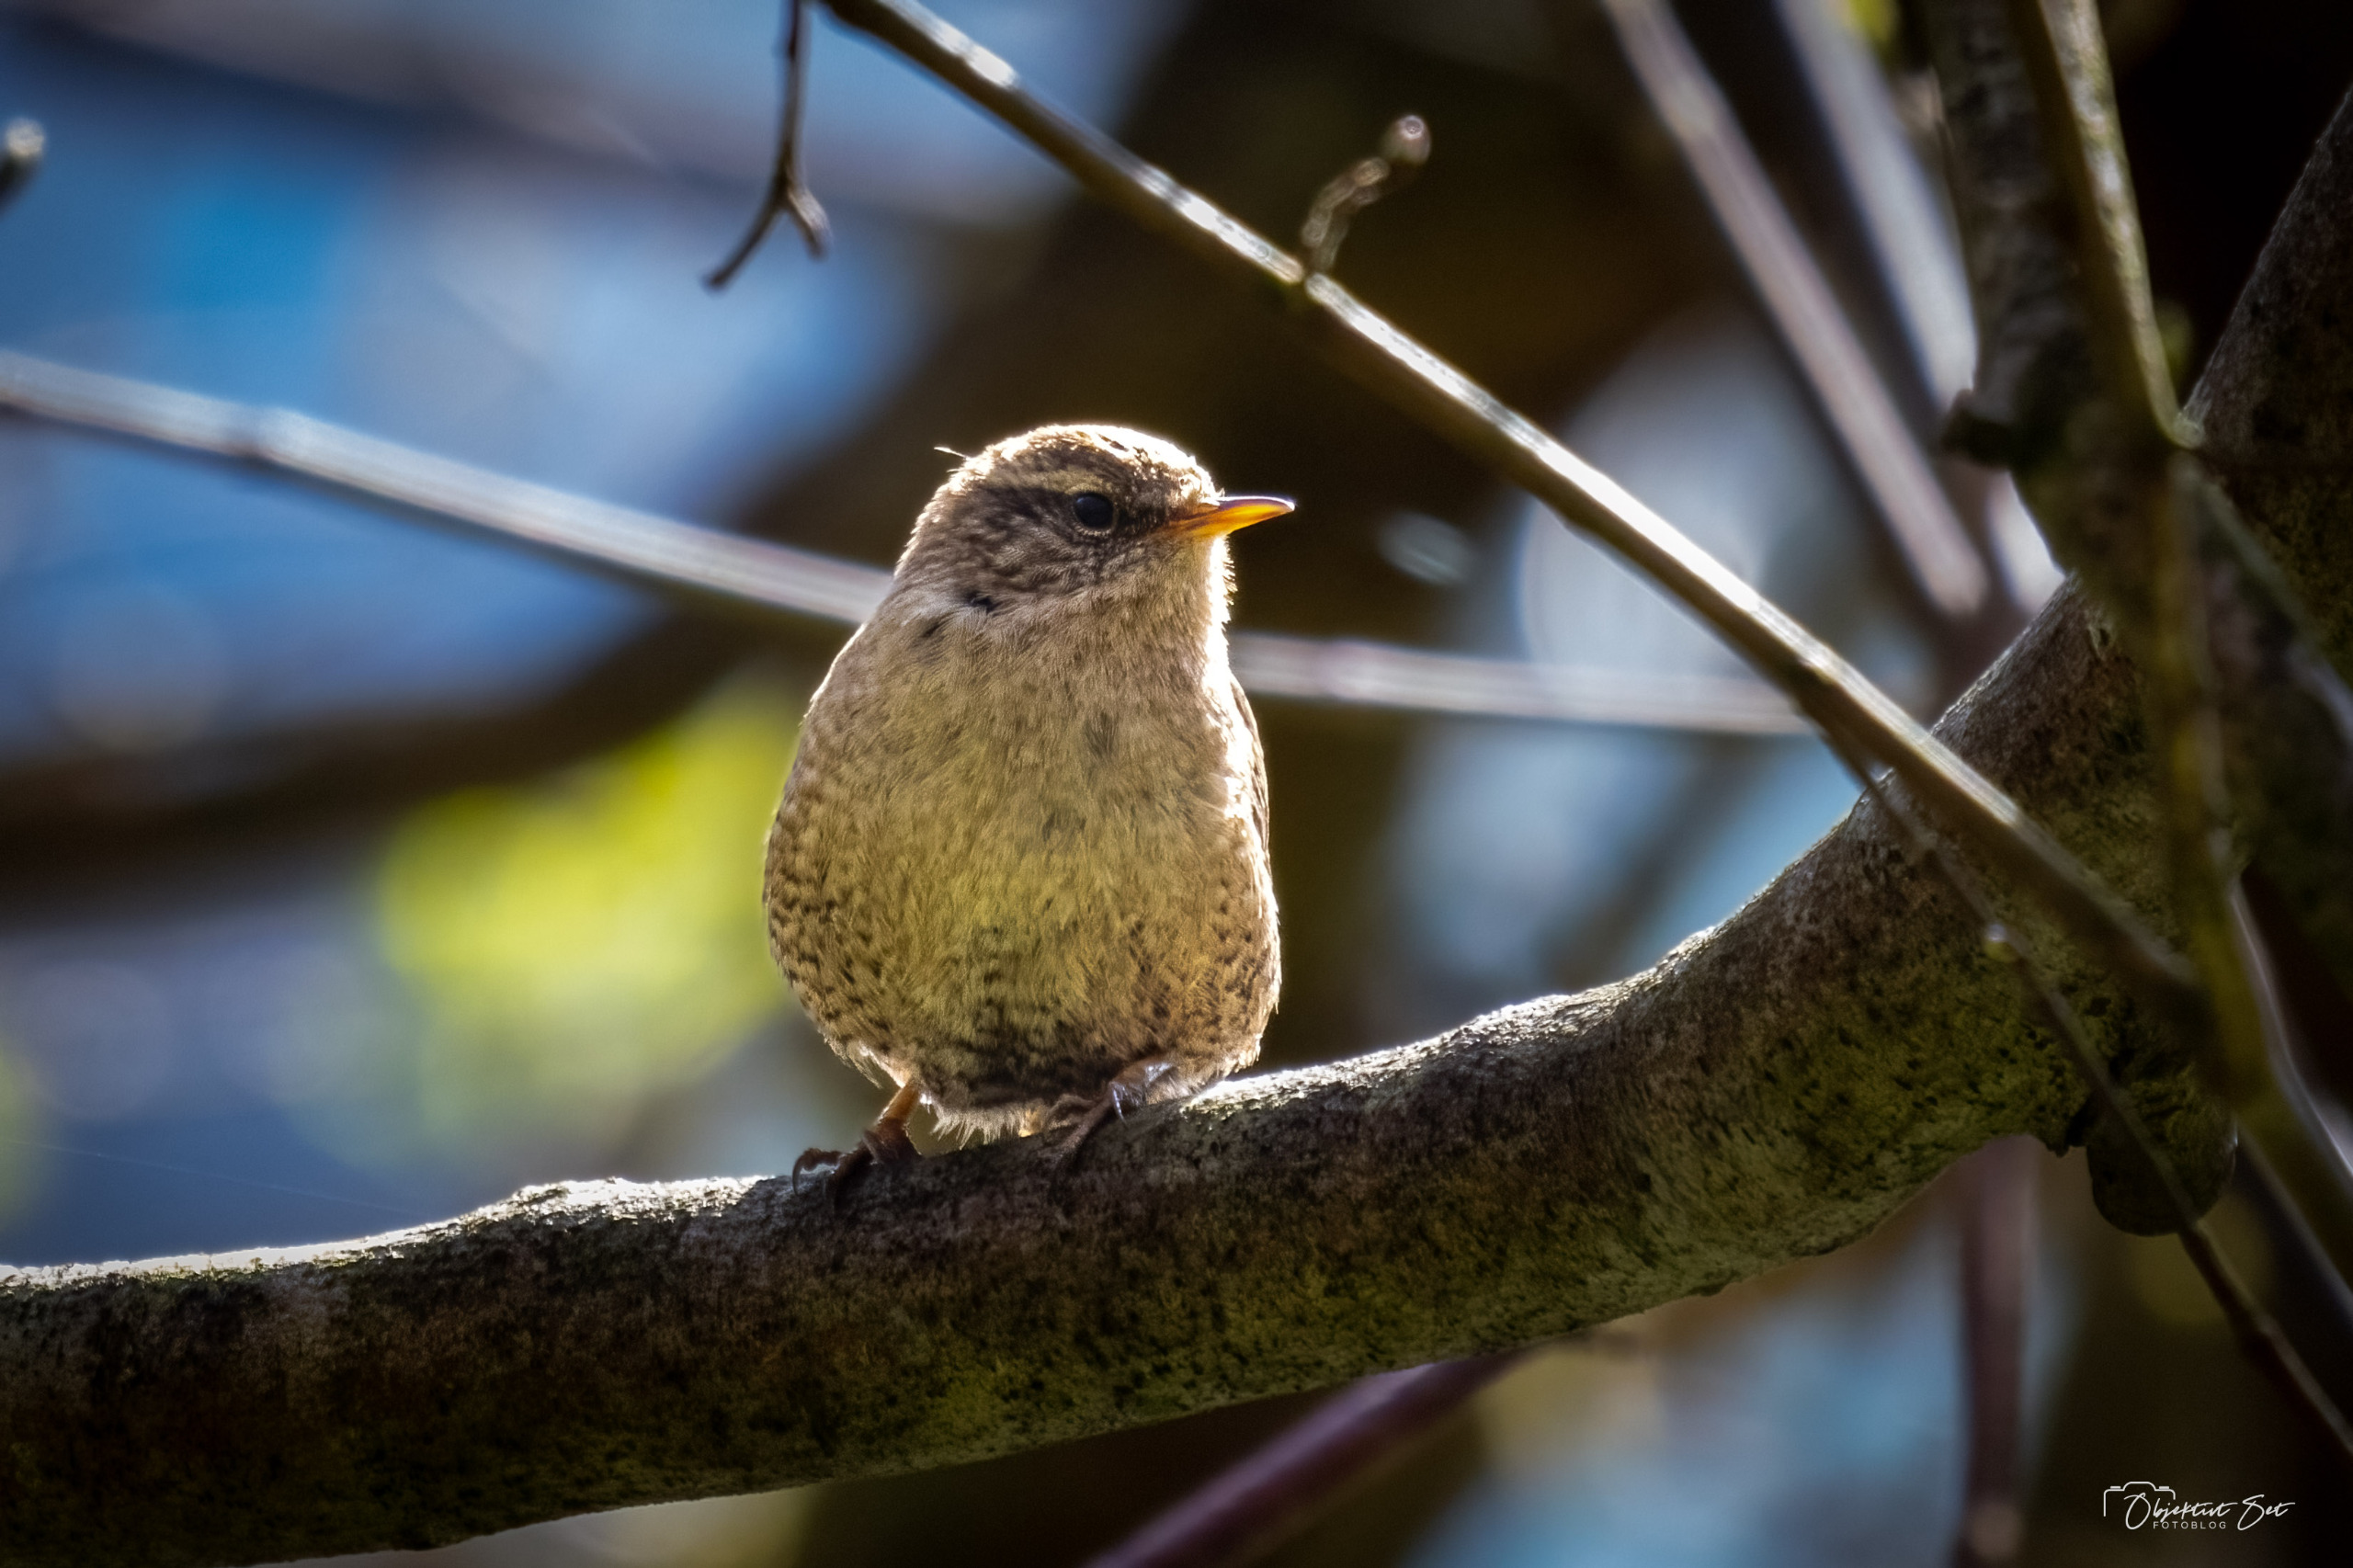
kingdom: Animalia
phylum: Chordata
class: Aves
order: Passeriformes
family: Troglodytidae
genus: Troglodytes
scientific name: Troglodytes troglodytes
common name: Gærdesmutte
